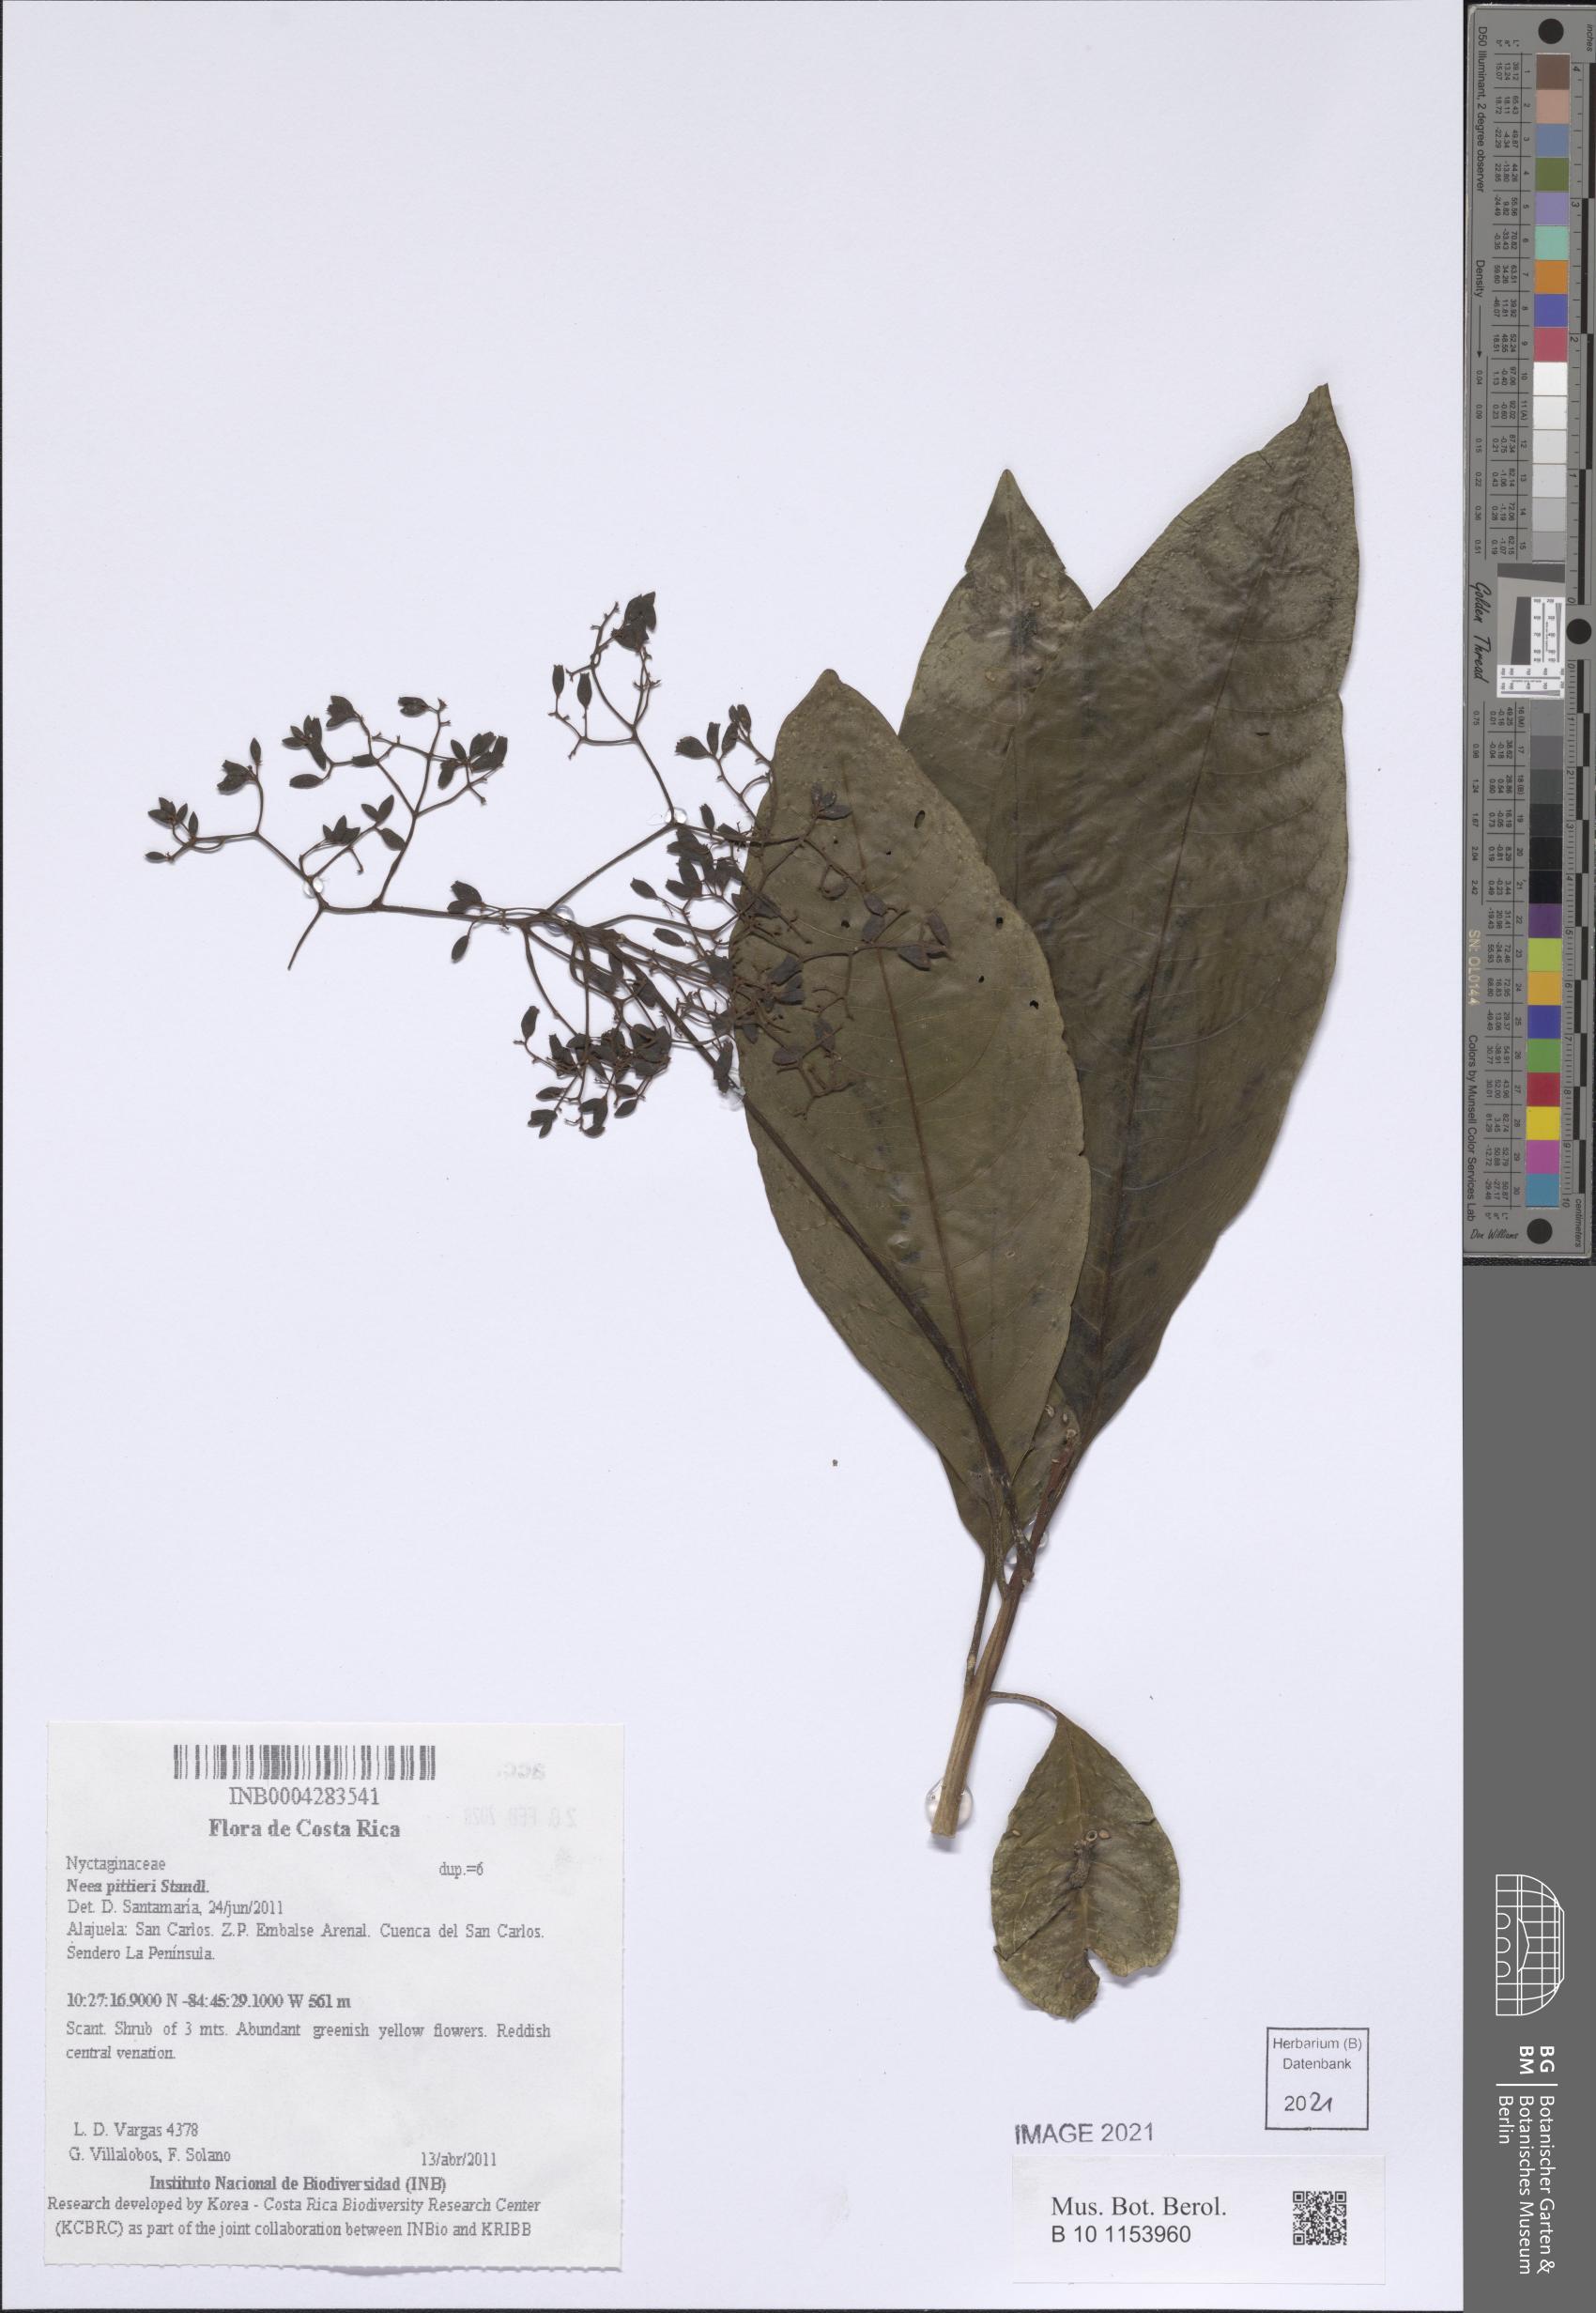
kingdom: Plantae
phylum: Tracheophyta
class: Magnoliopsida
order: Caryophyllales
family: Nyctaginaceae
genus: Neea
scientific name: Neea pittieri
